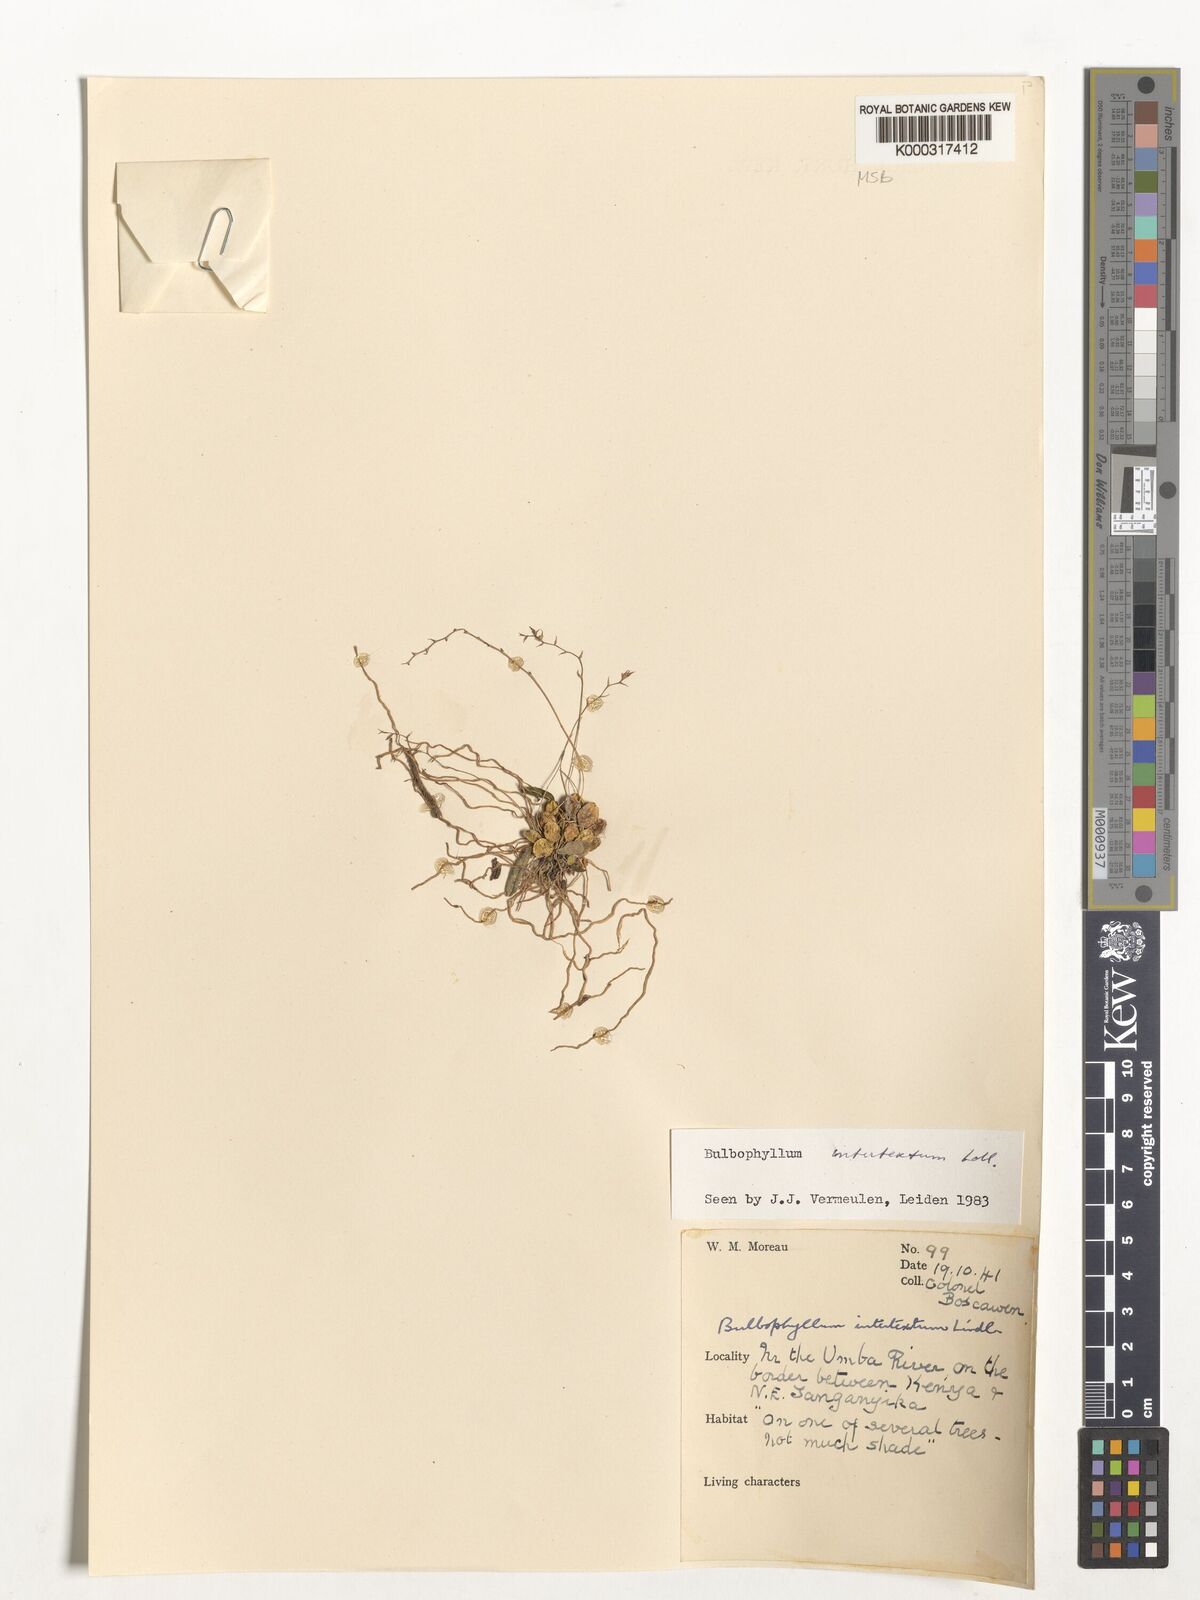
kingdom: Plantae
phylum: Tracheophyta
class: Liliopsida
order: Asparagales
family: Orchidaceae
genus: Bulbophyllum
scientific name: Bulbophyllum intertextum
